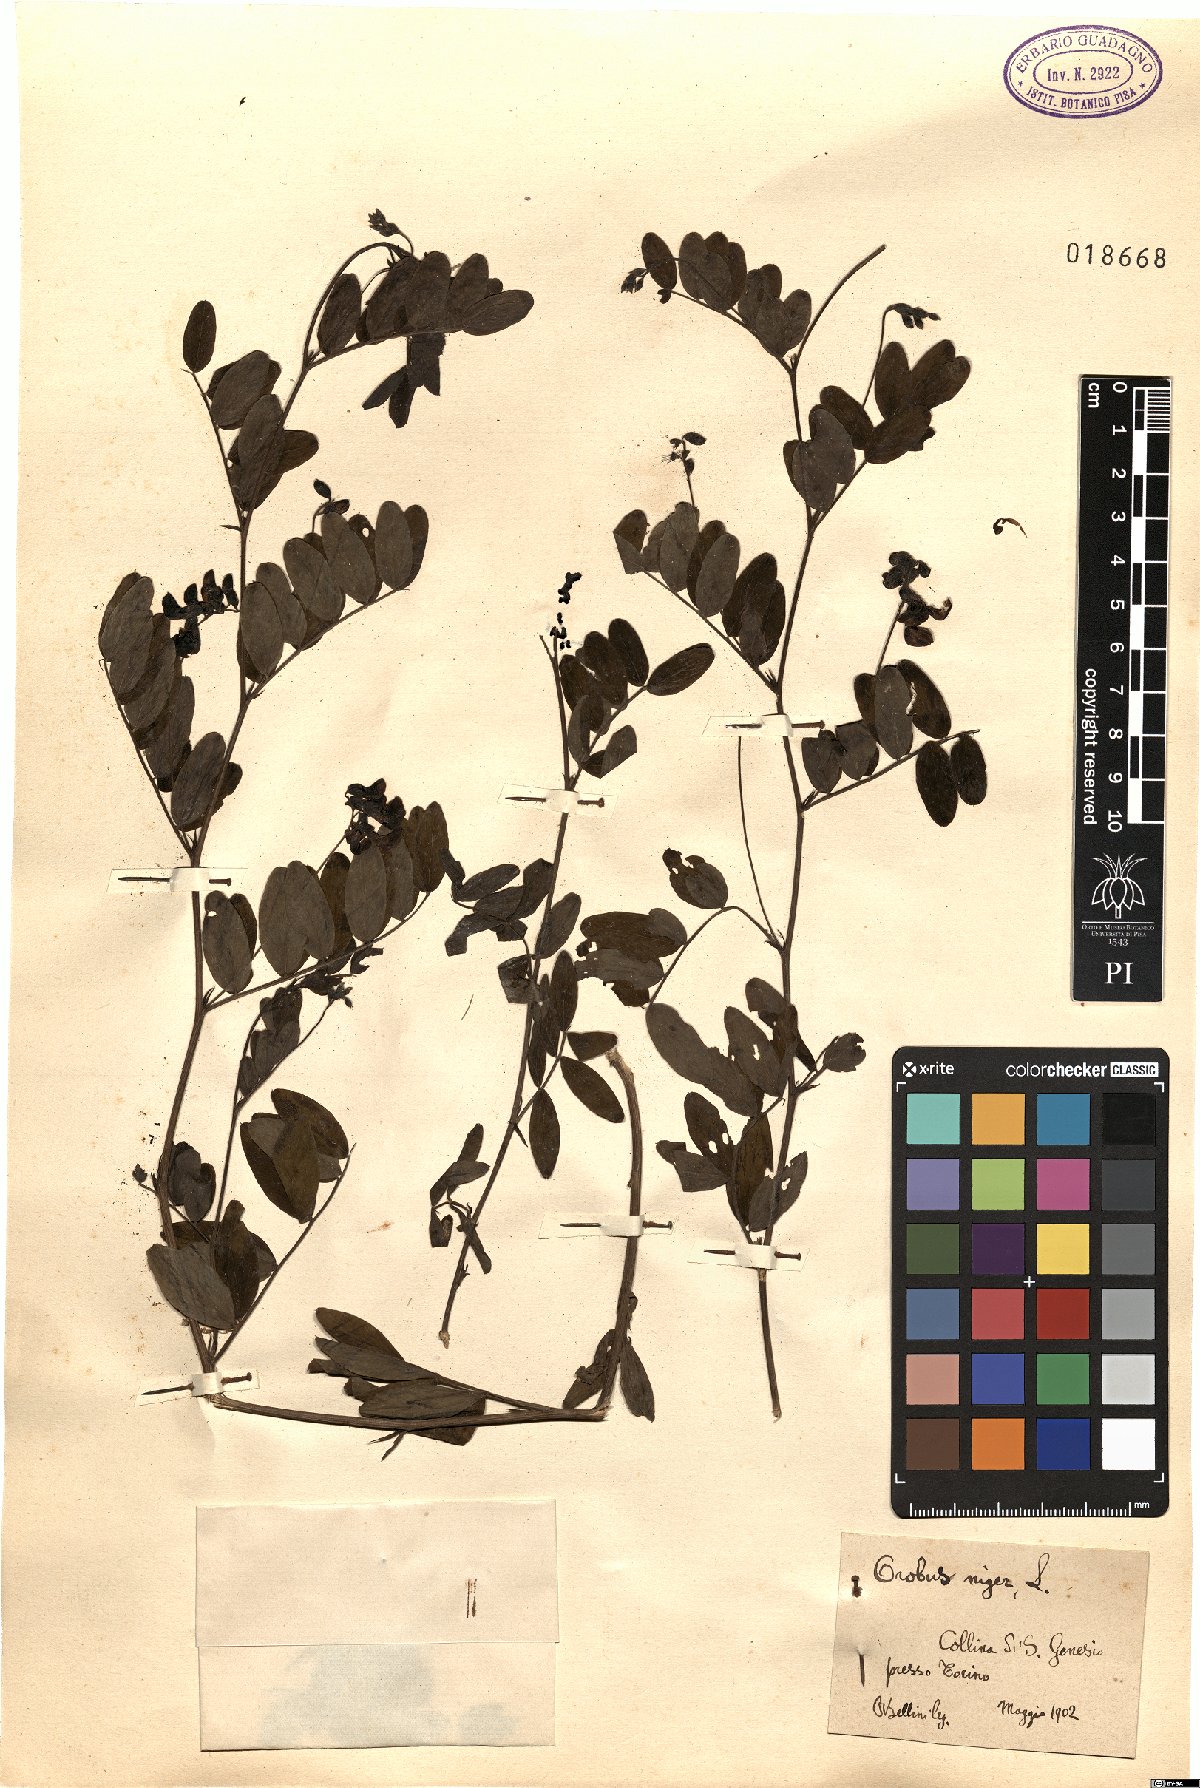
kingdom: Plantae
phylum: Tracheophyta
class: Magnoliopsida
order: Fabales
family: Fabaceae
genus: Lathyrus
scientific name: Lathyrus niger
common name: Black pea
